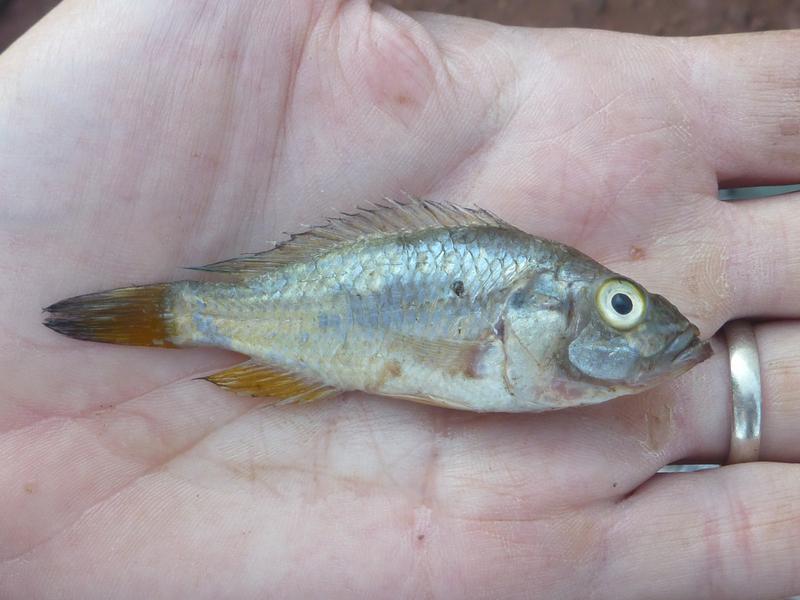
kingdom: Animalia
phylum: Chordata
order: Perciformes
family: Cichlidae
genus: Oreochromis
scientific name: Oreochromis korogwe
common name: Korogwe tilapia
